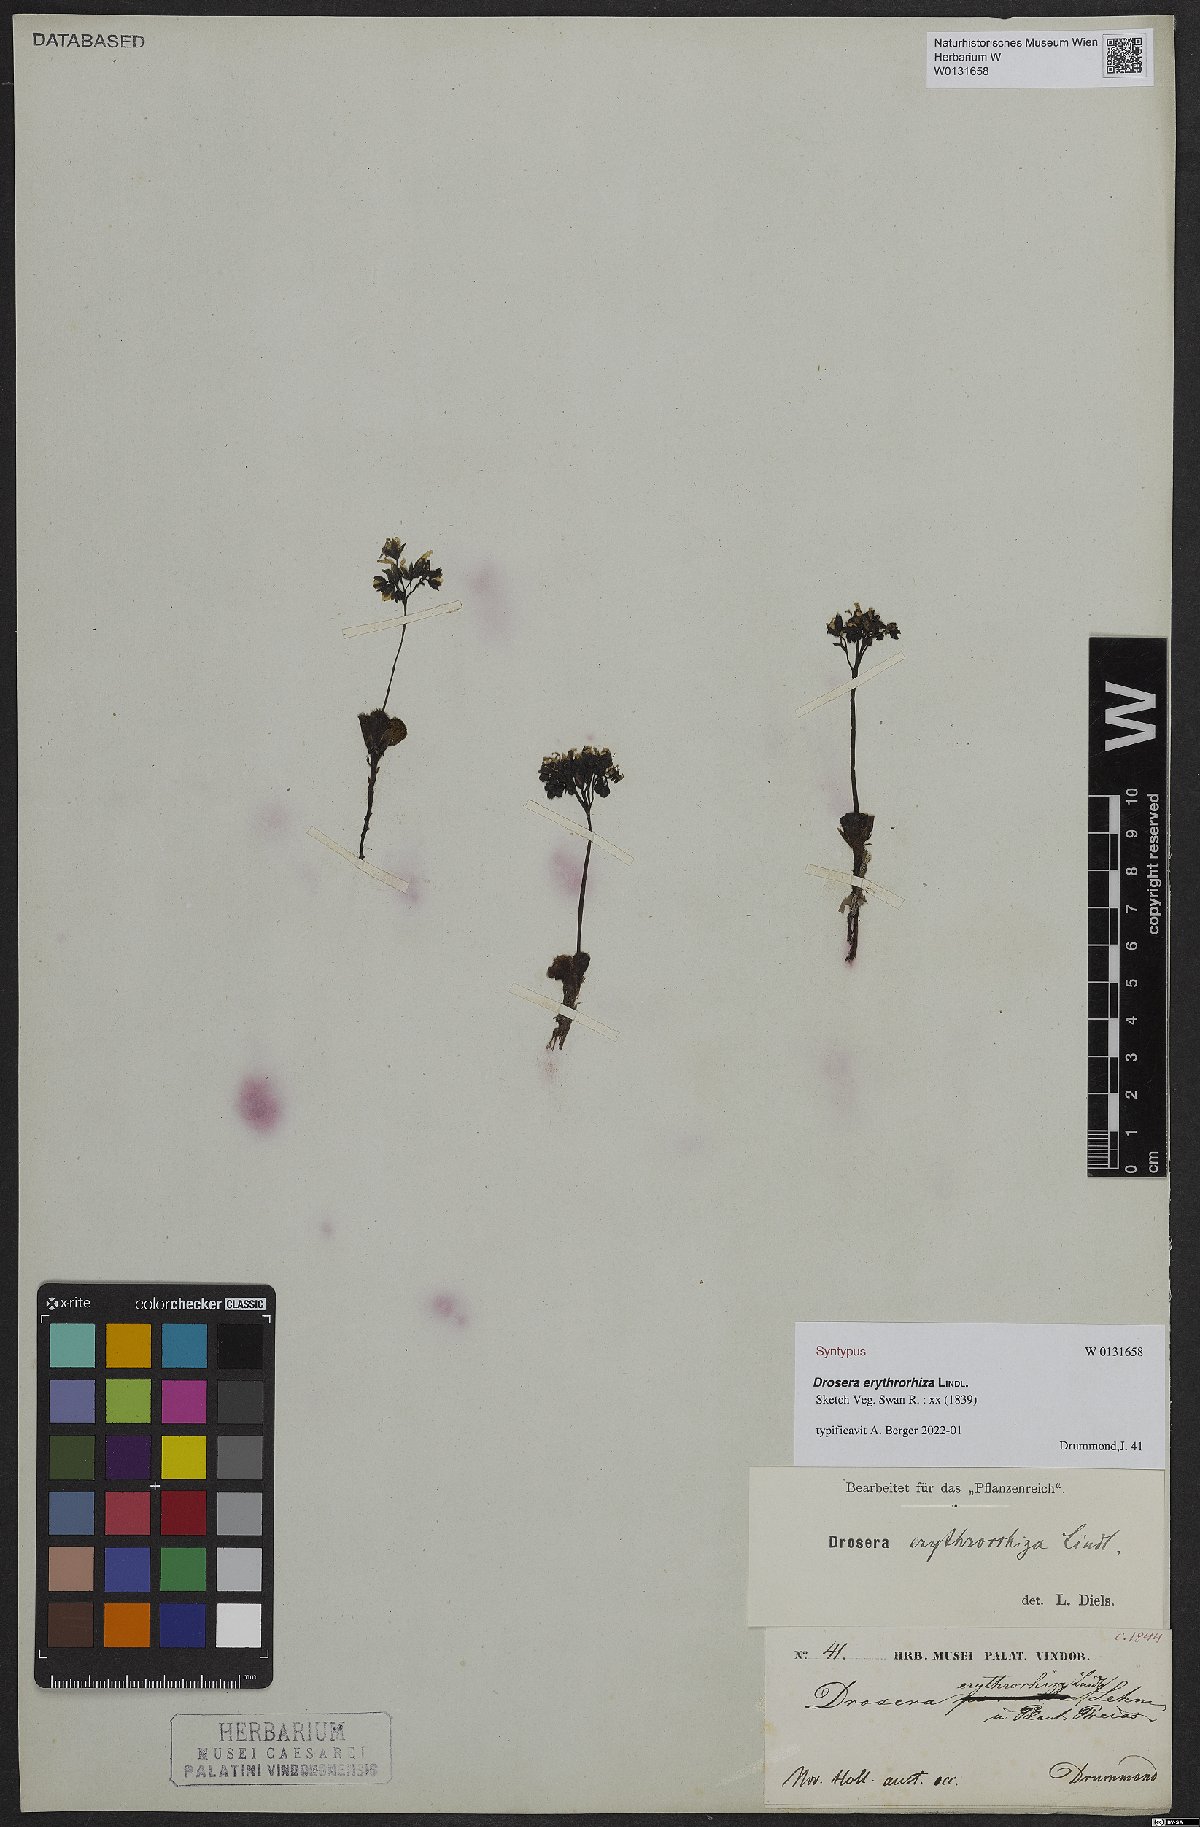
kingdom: Plantae
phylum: Tracheophyta
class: Magnoliopsida
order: Caryophyllales
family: Droseraceae
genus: Drosera
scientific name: Drosera erythrorhiza
